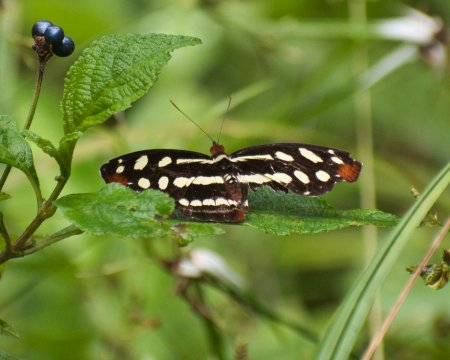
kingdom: Animalia
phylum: Arthropoda
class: Insecta
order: Lepidoptera
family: Nymphalidae
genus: Catonephele
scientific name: Catonephele mexicana
